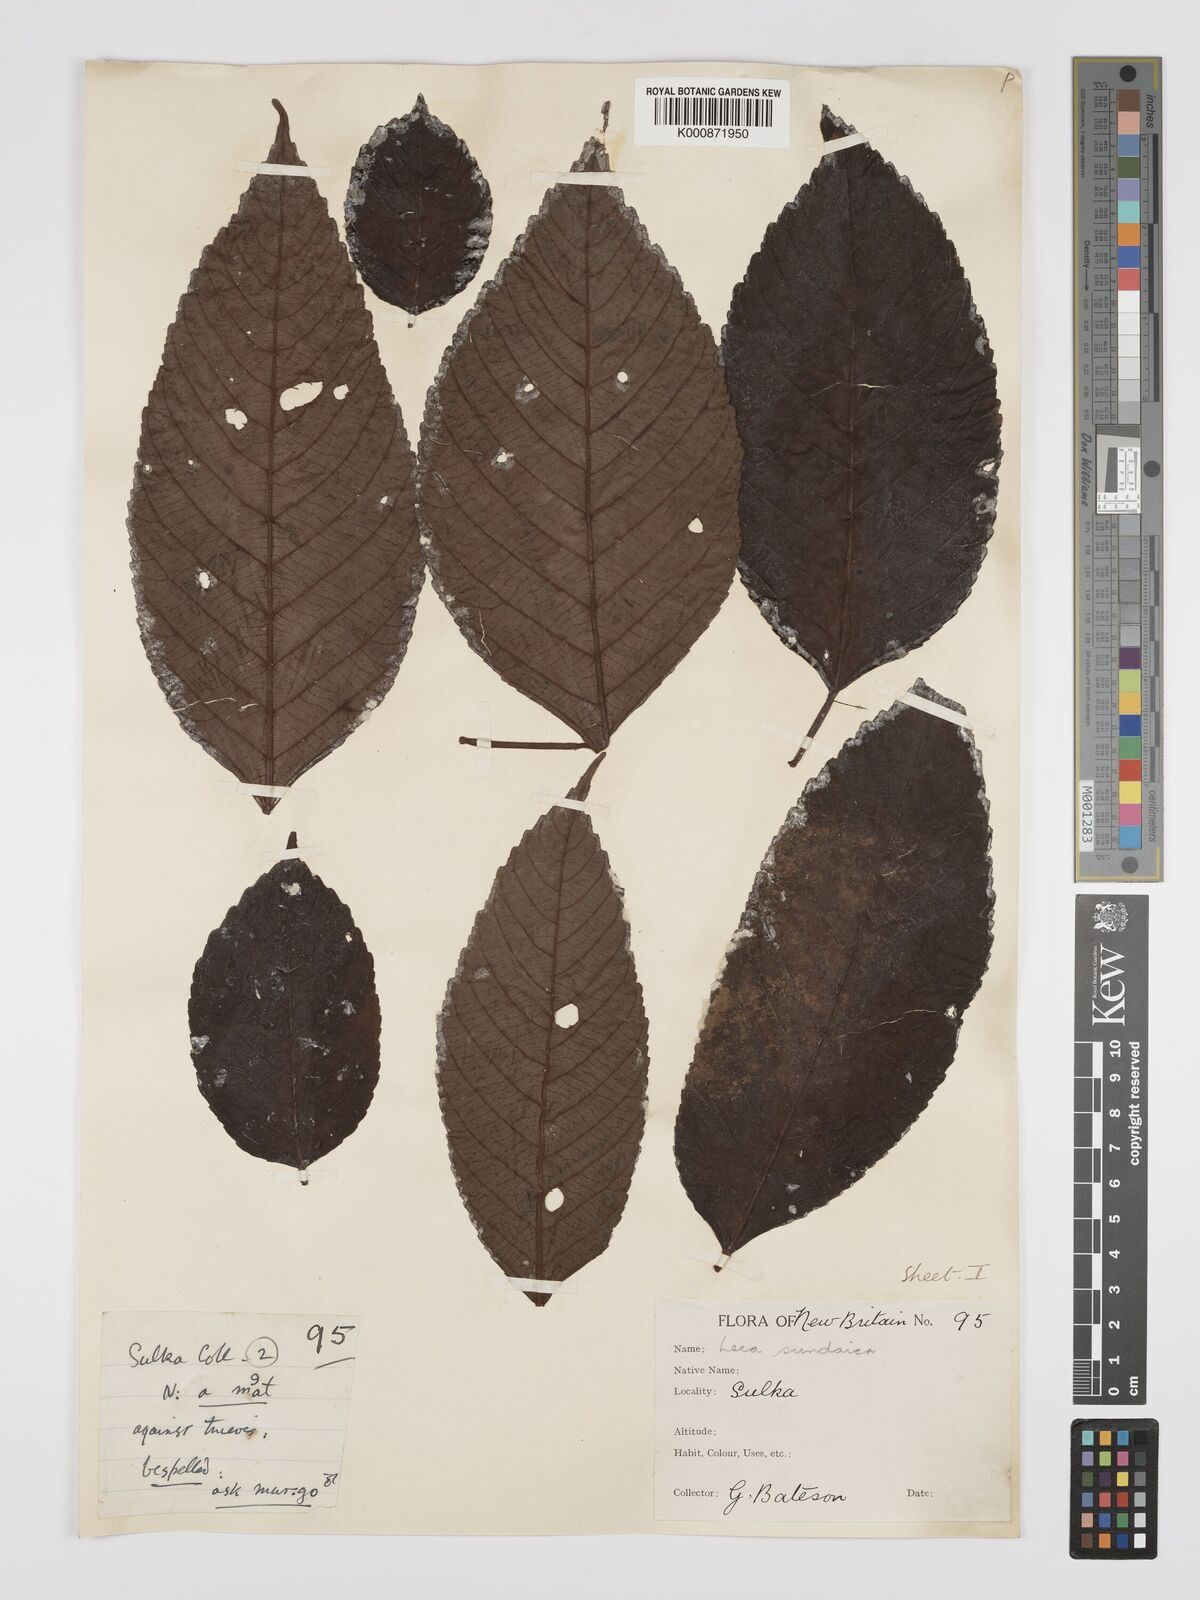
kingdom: Plantae
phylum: Tracheophyta
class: Magnoliopsida
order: Vitales
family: Vitaceae
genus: Leea
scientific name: Leea indica
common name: Bandicoot-berry
